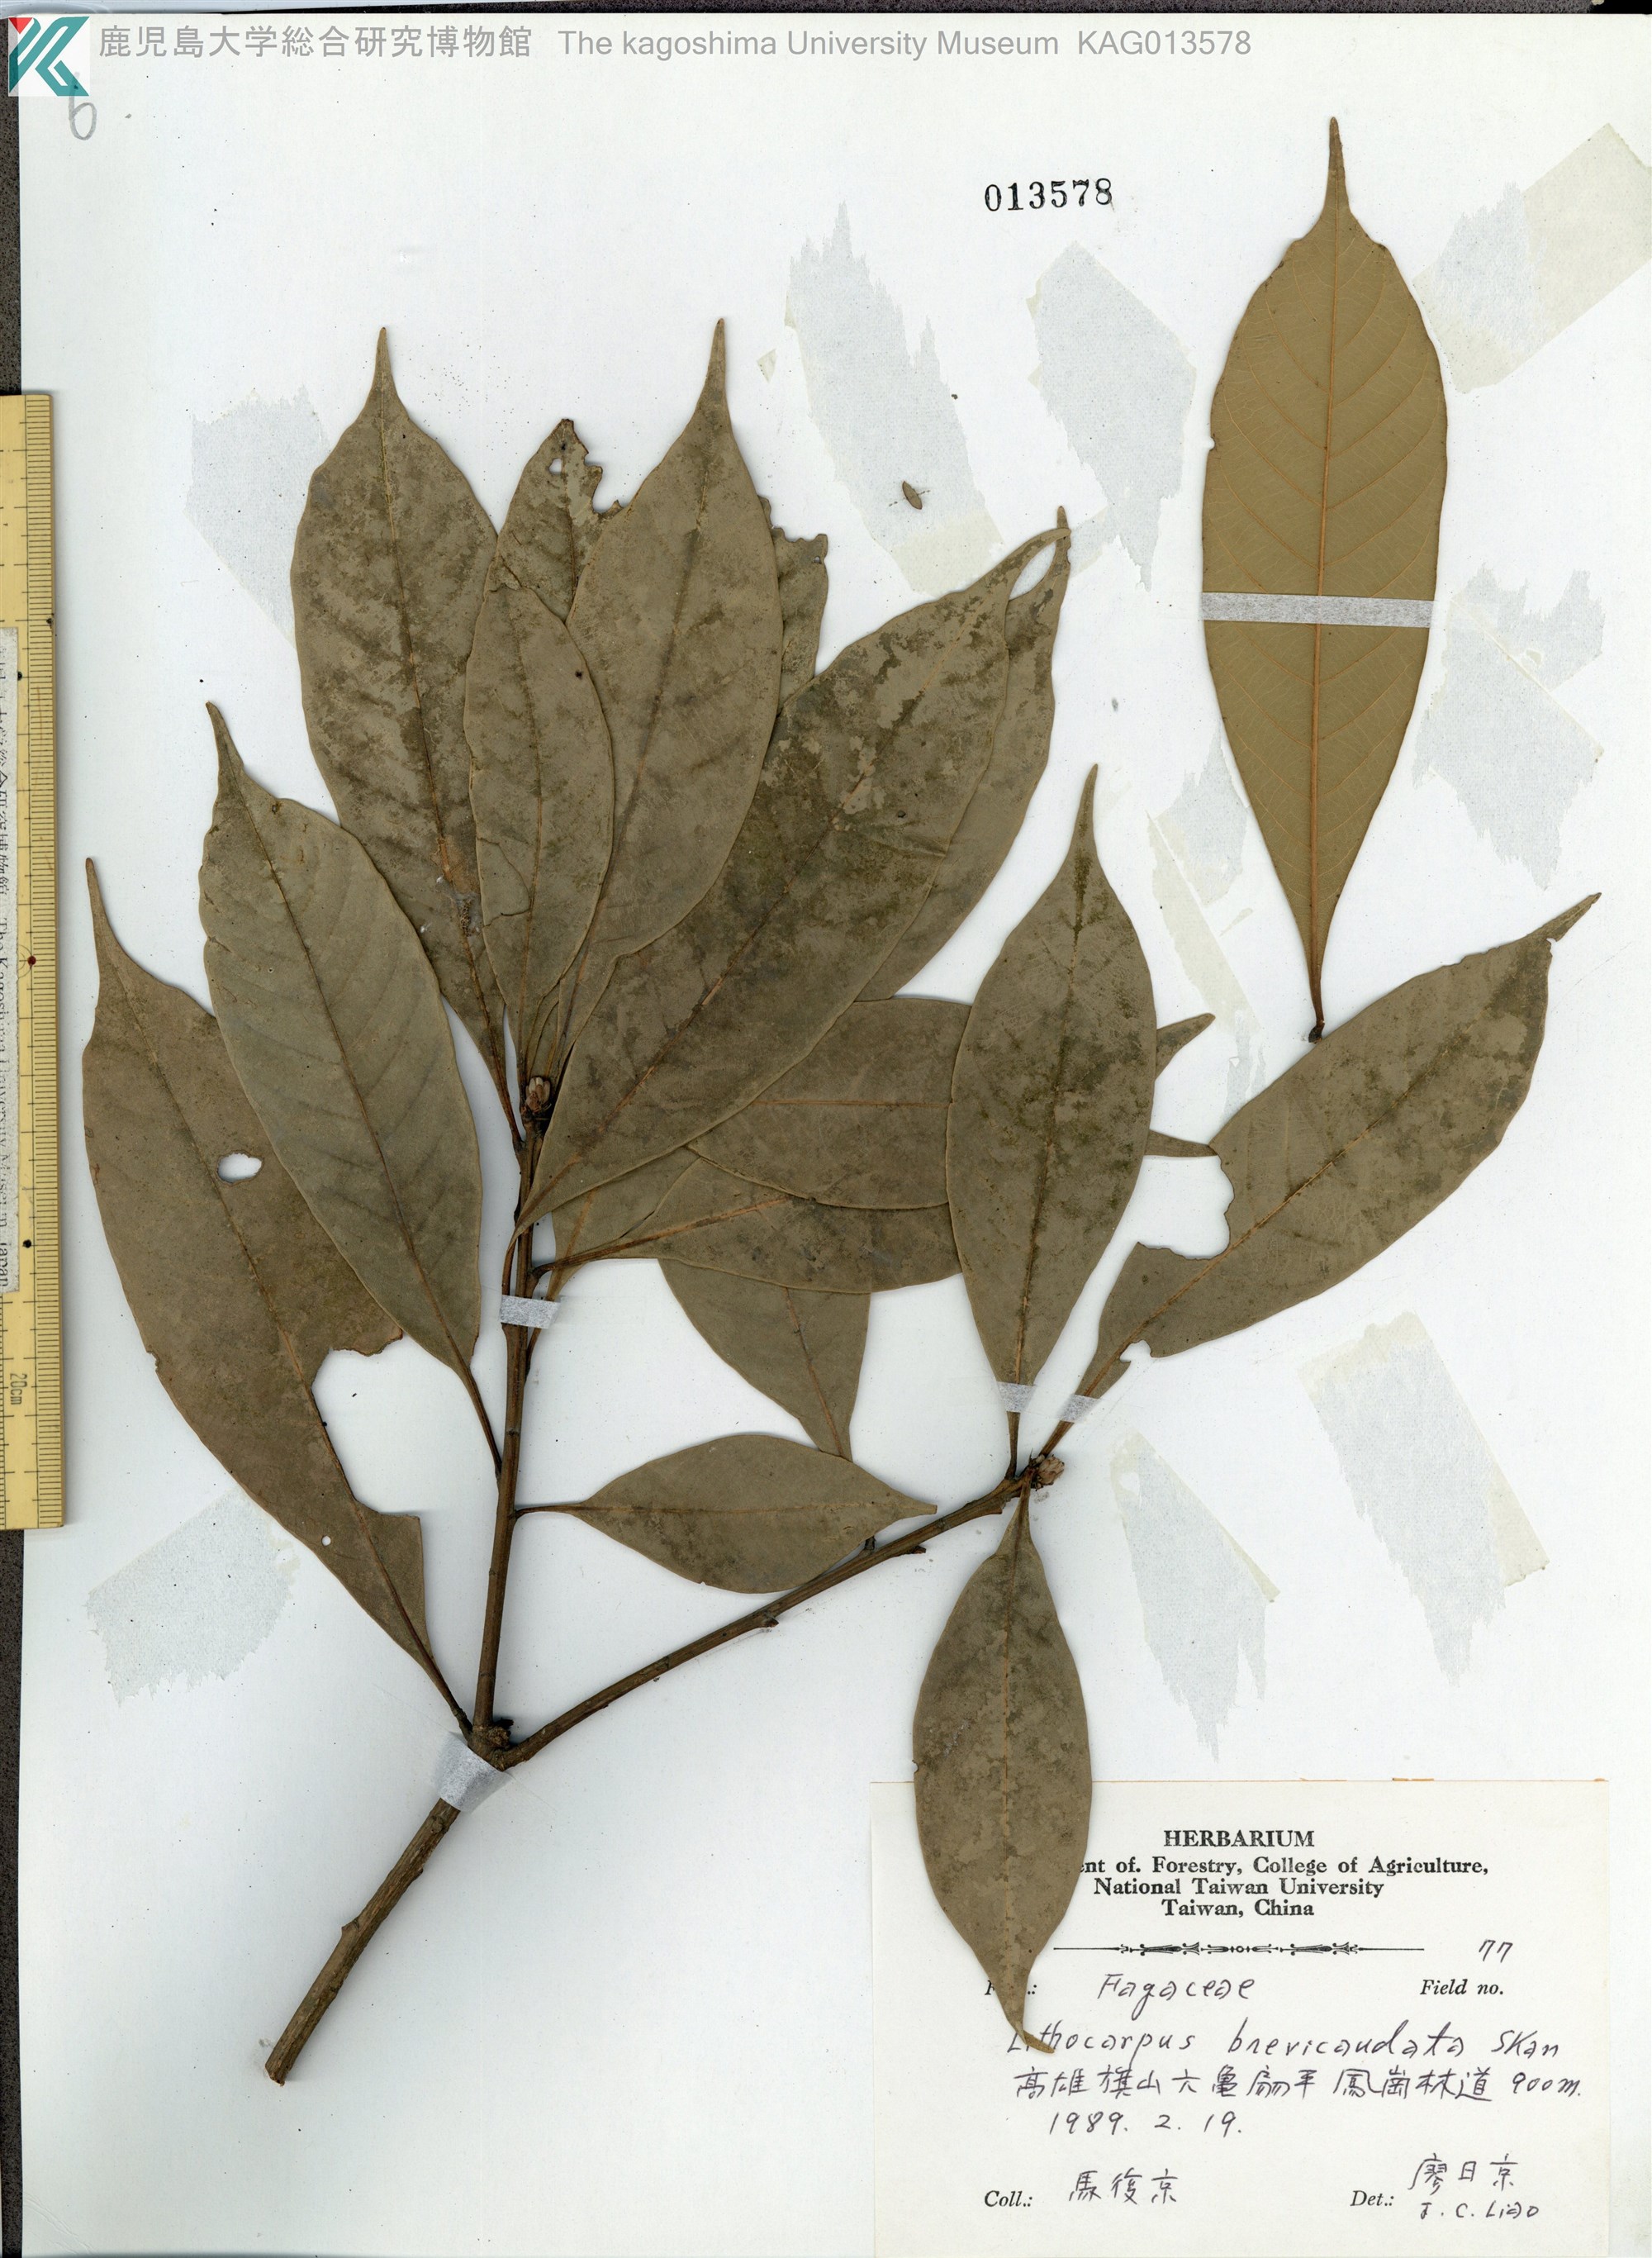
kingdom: Plantae
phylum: Tracheophyta
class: Magnoliopsida
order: Fagales
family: Fagaceae
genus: Lithocarpus
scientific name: Lithocarpus brevicaudatus
